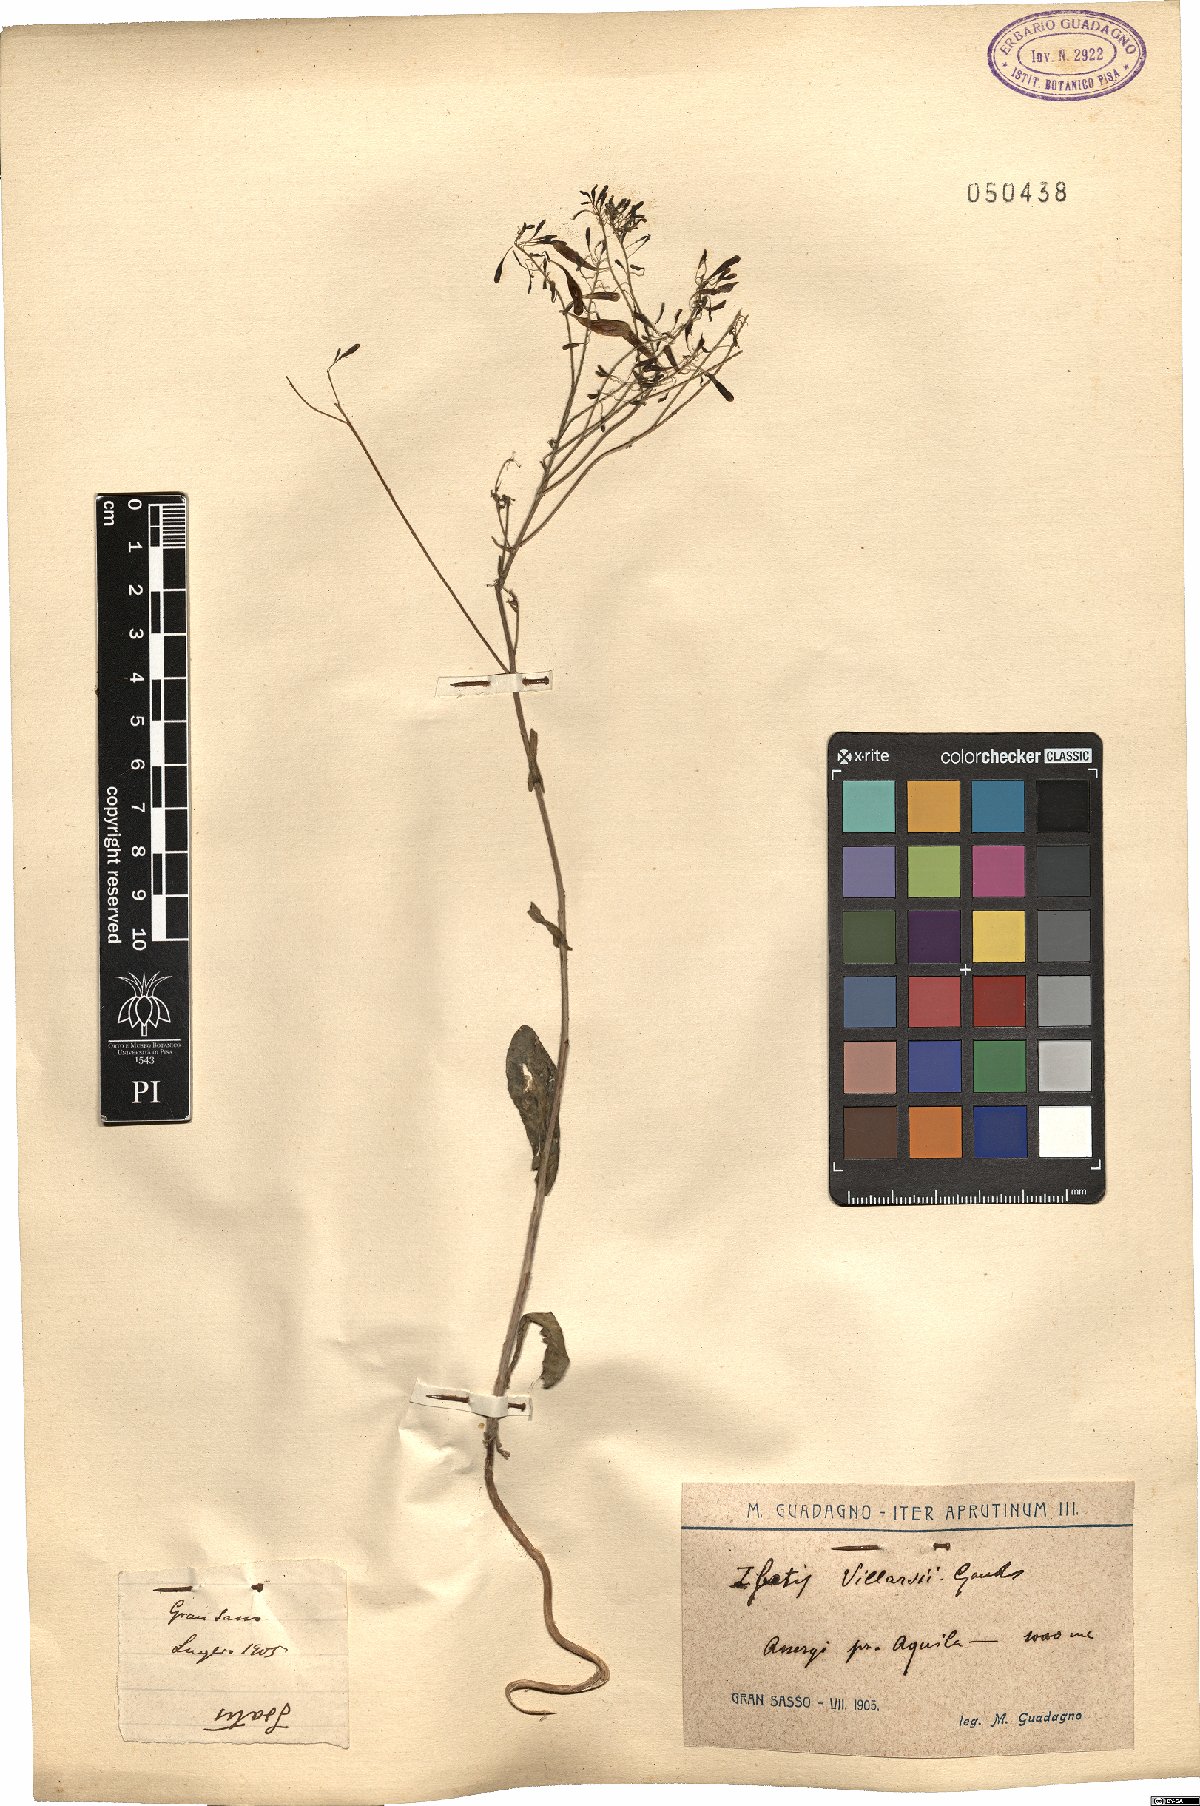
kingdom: Plantae
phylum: Tracheophyta
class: Magnoliopsida
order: Brassicales
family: Brassicaceae
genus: Isatis
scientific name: Isatis tinctoria
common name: Woad
